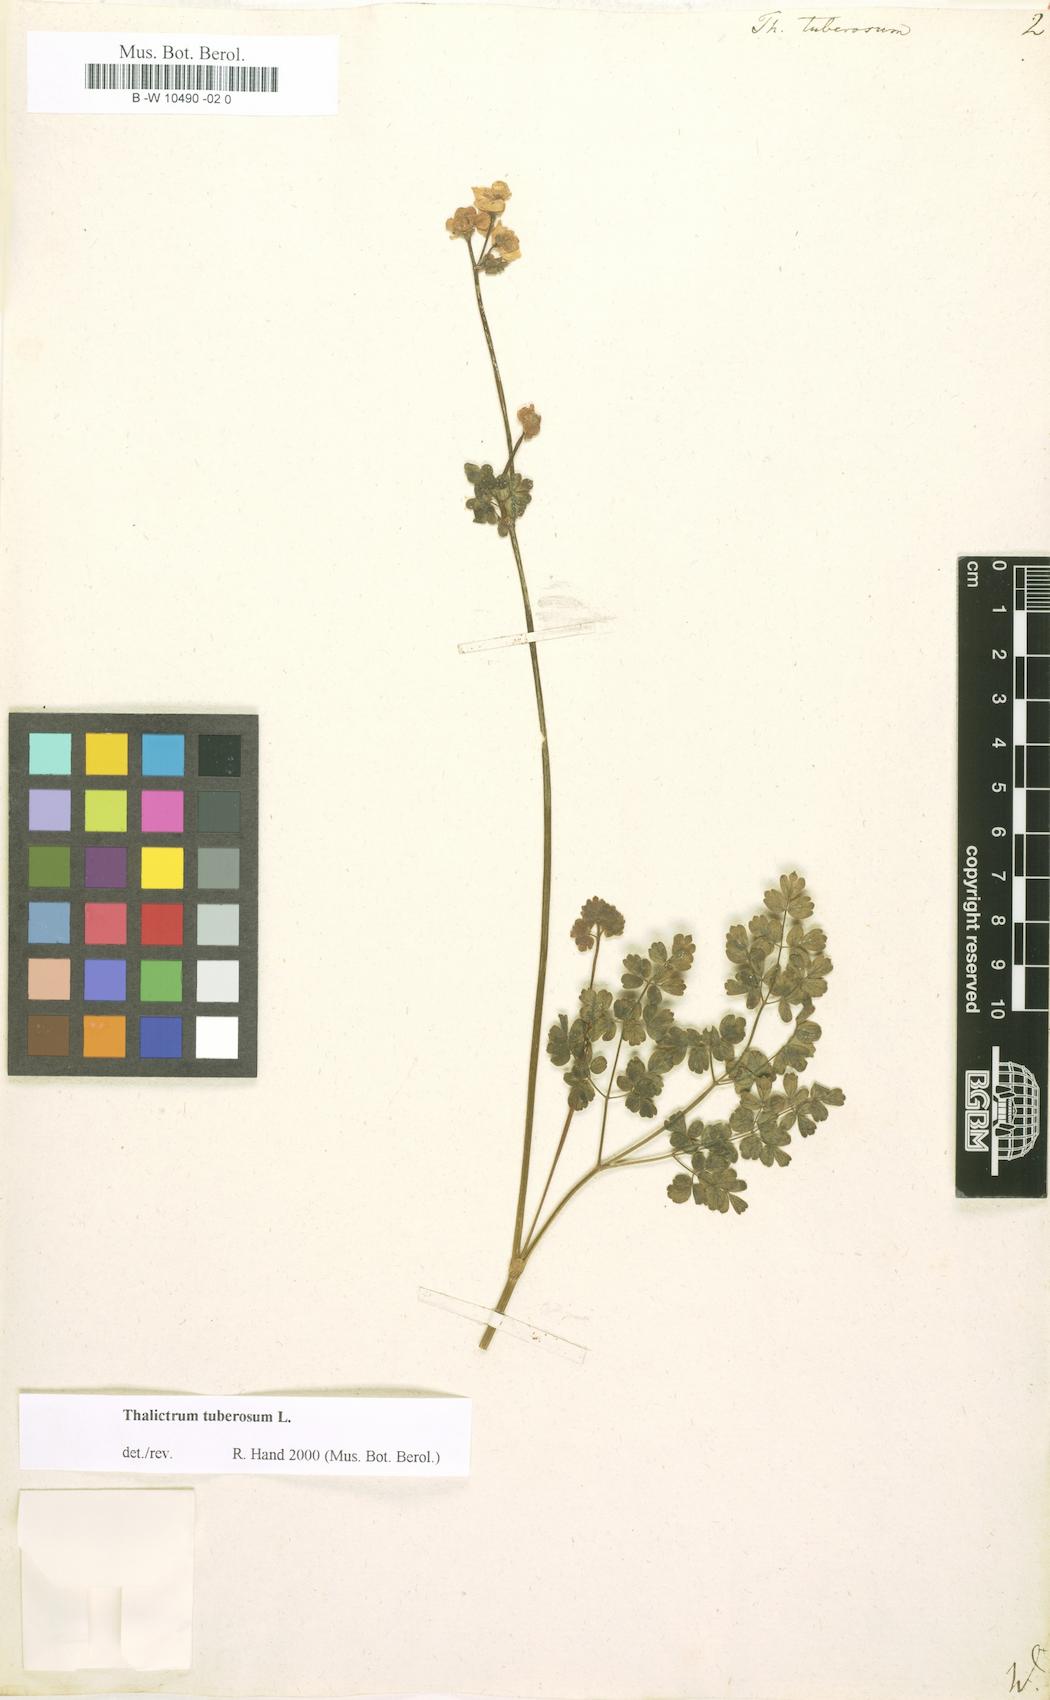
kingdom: Plantae
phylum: Tracheophyta
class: Magnoliopsida
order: Ranunculales
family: Ranunculaceae
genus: Thalictrum
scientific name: Thalictrum tuberosum
